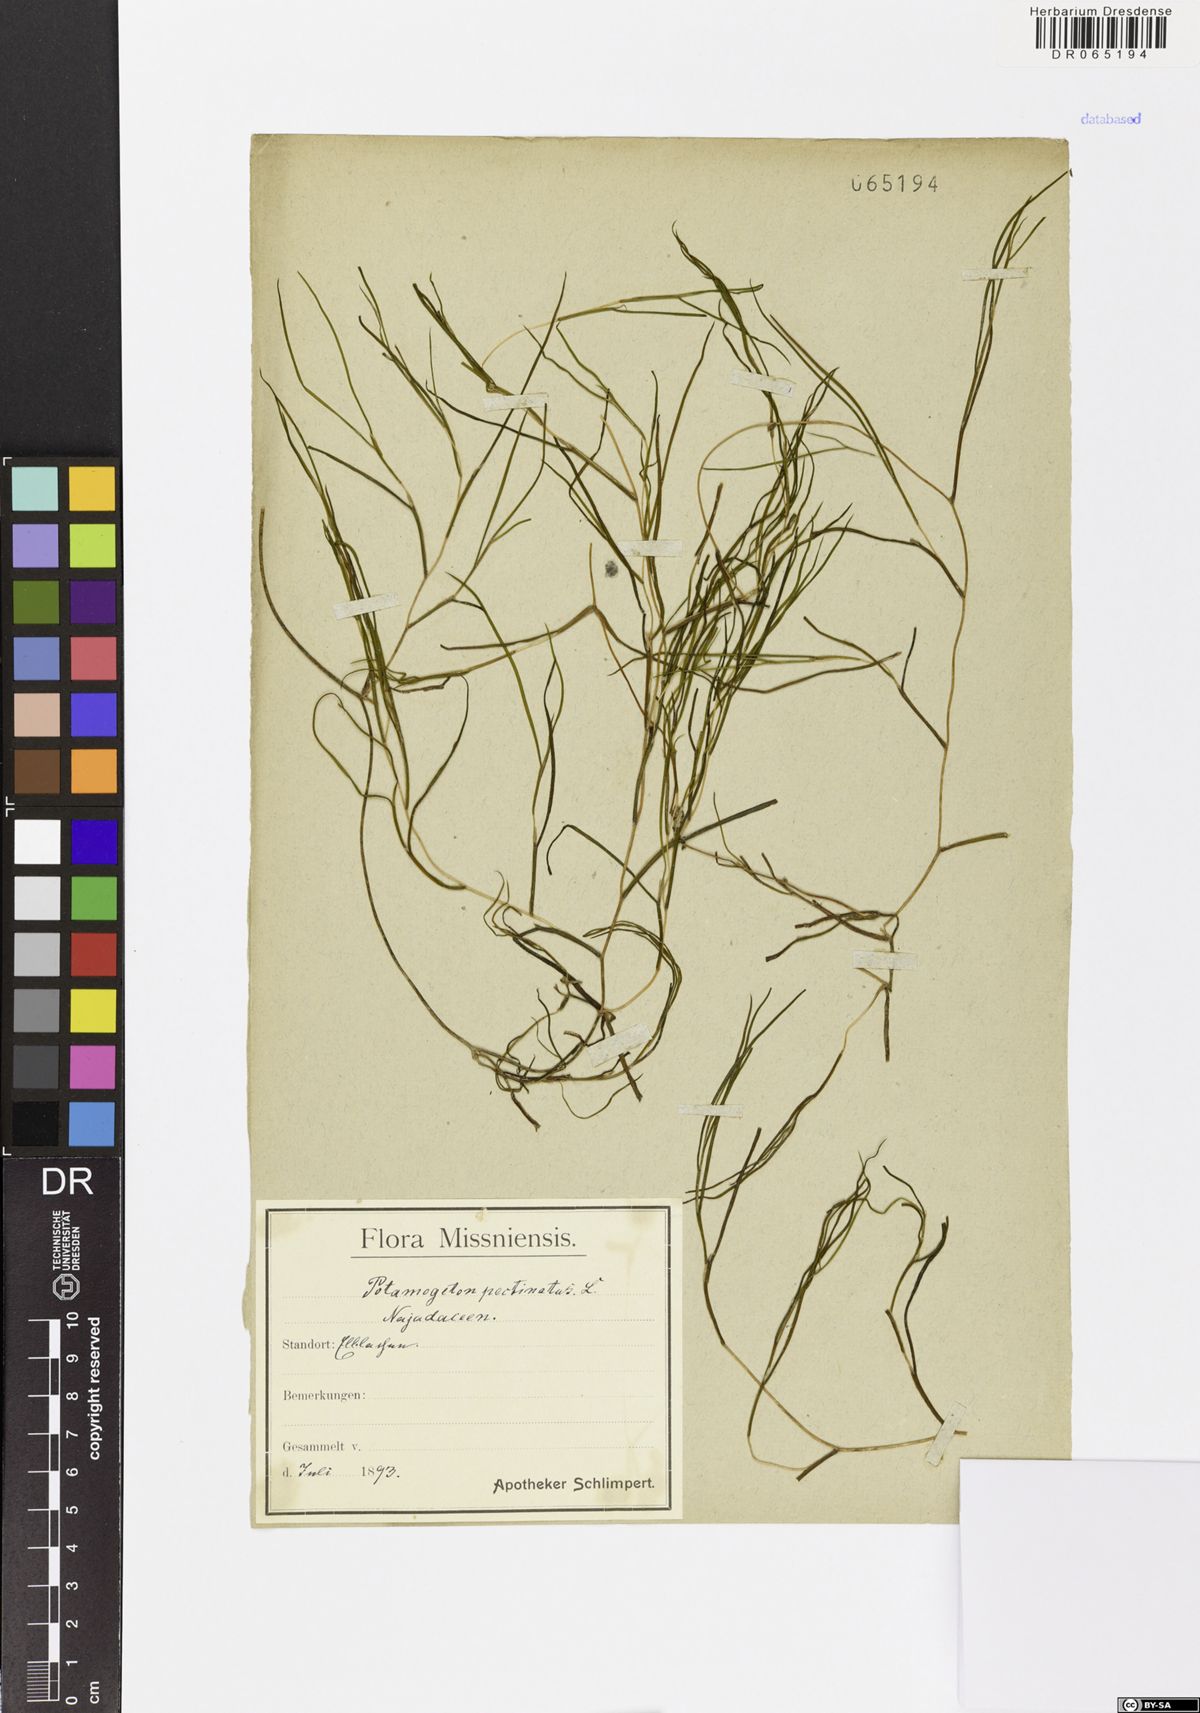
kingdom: Plantae
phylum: Tracheophyta
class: Liliopsida
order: Alismatales
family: Potamogetonaceae
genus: Stuckenia
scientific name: Stuckenia pectinata
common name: Sago pondweed
